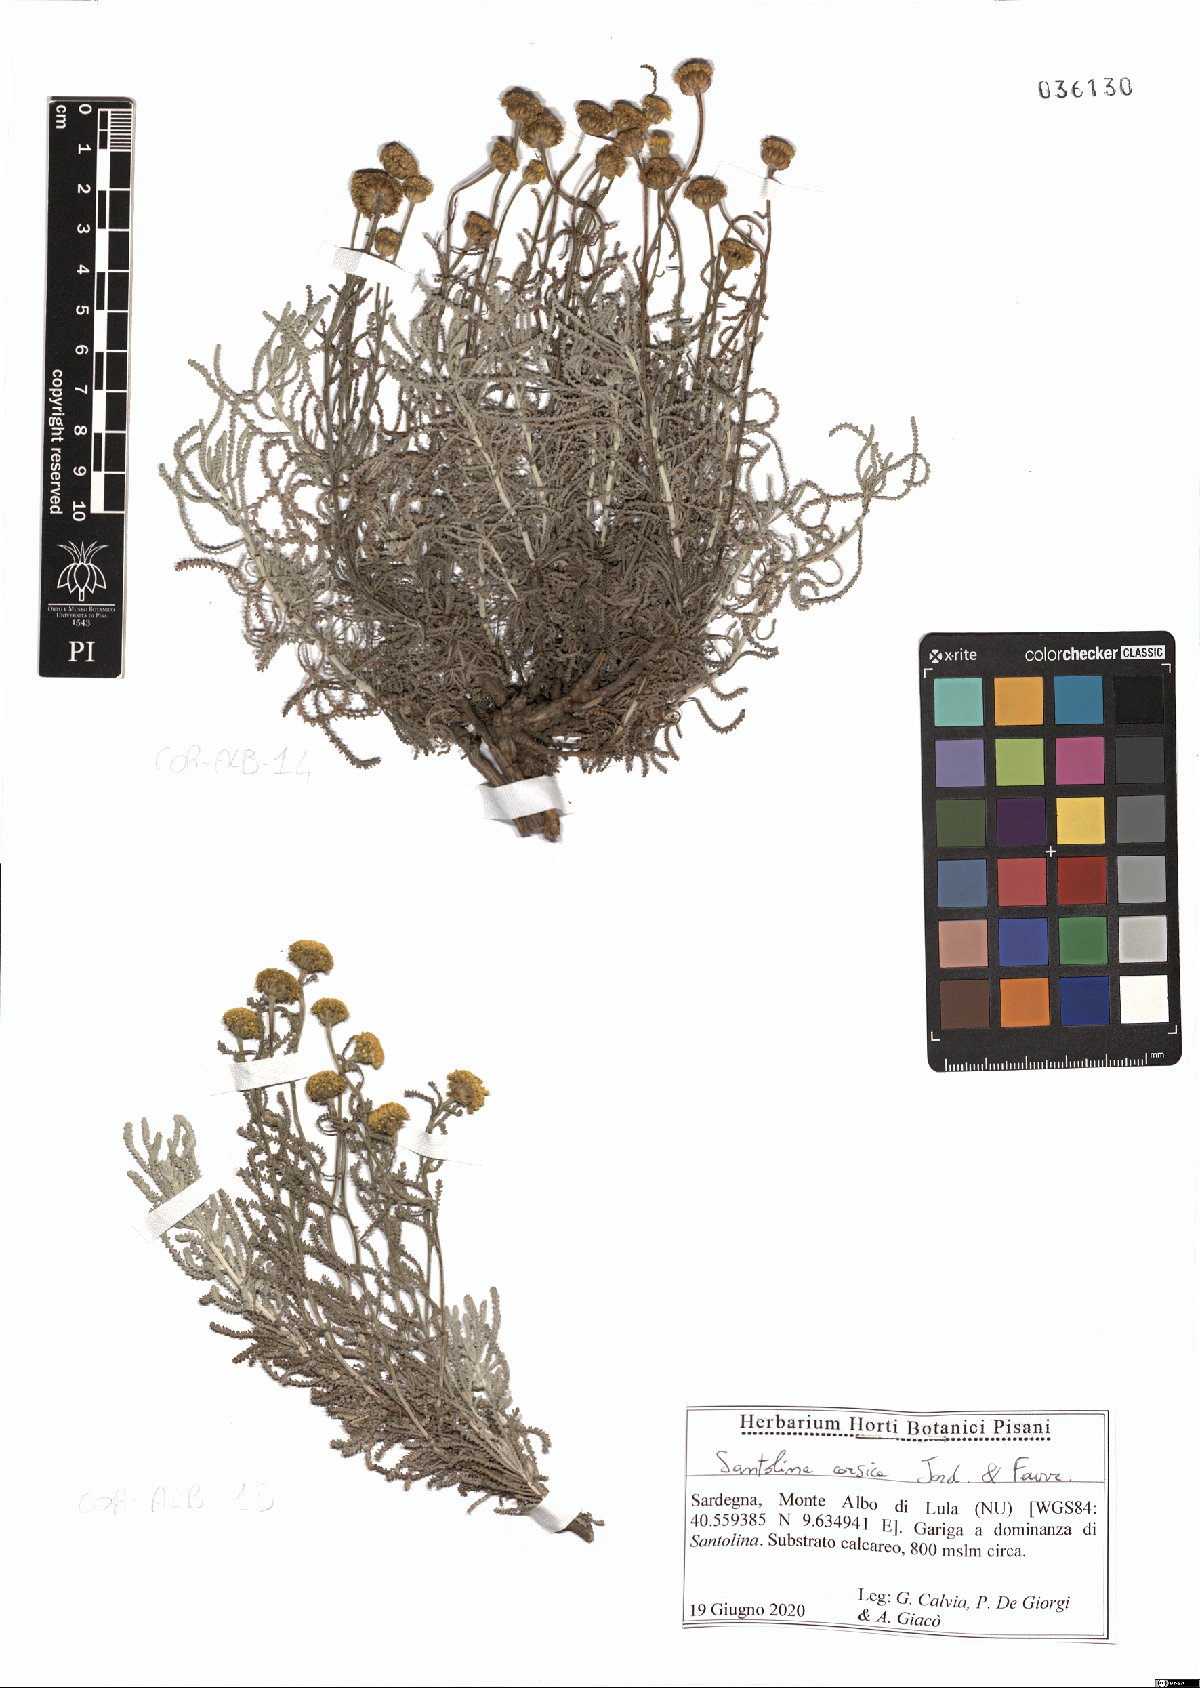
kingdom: Plantae
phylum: Tracheophyta
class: Magnoliopsida
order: Asterales
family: Asteraceae
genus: Santolina
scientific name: Santolina corsica
